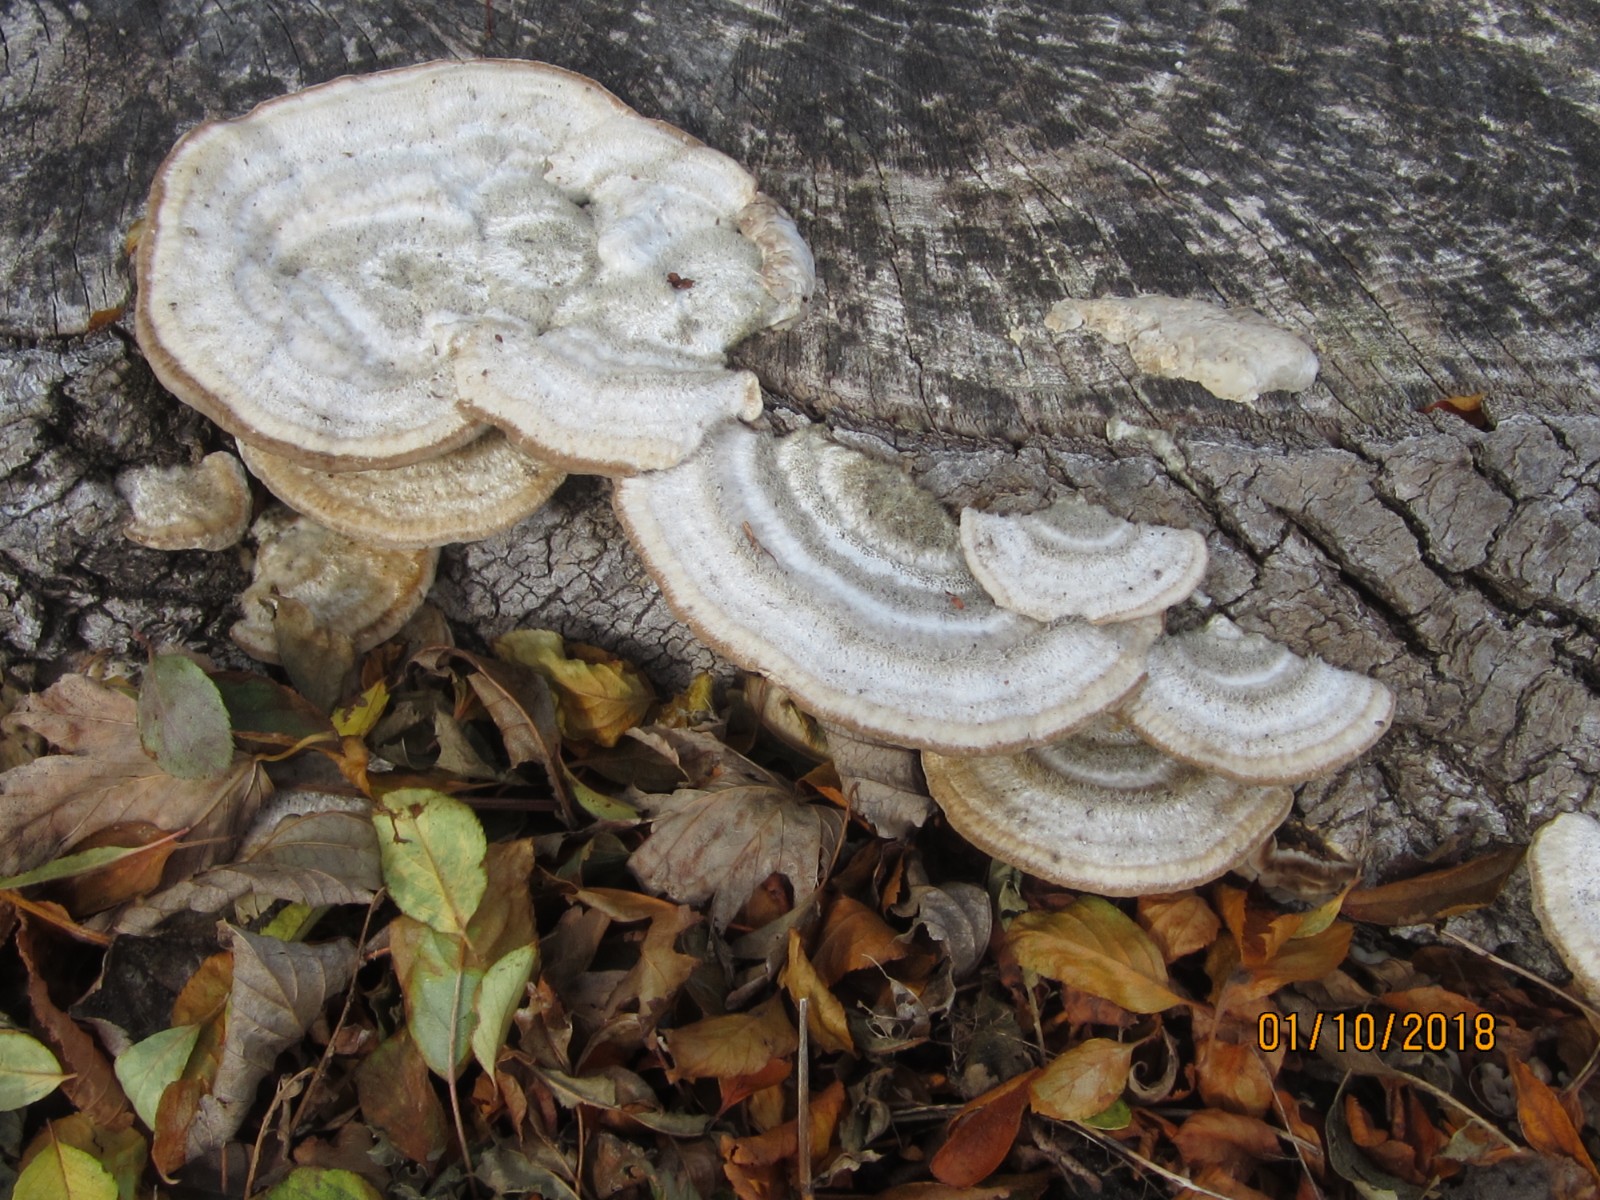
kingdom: Fungi
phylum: Basidiomycota
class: Agaricomycetes
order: Polyporales
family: Fomitopsidaceae
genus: Daedalea
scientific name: Daedalea quercina
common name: ege-labyrintsvamp
